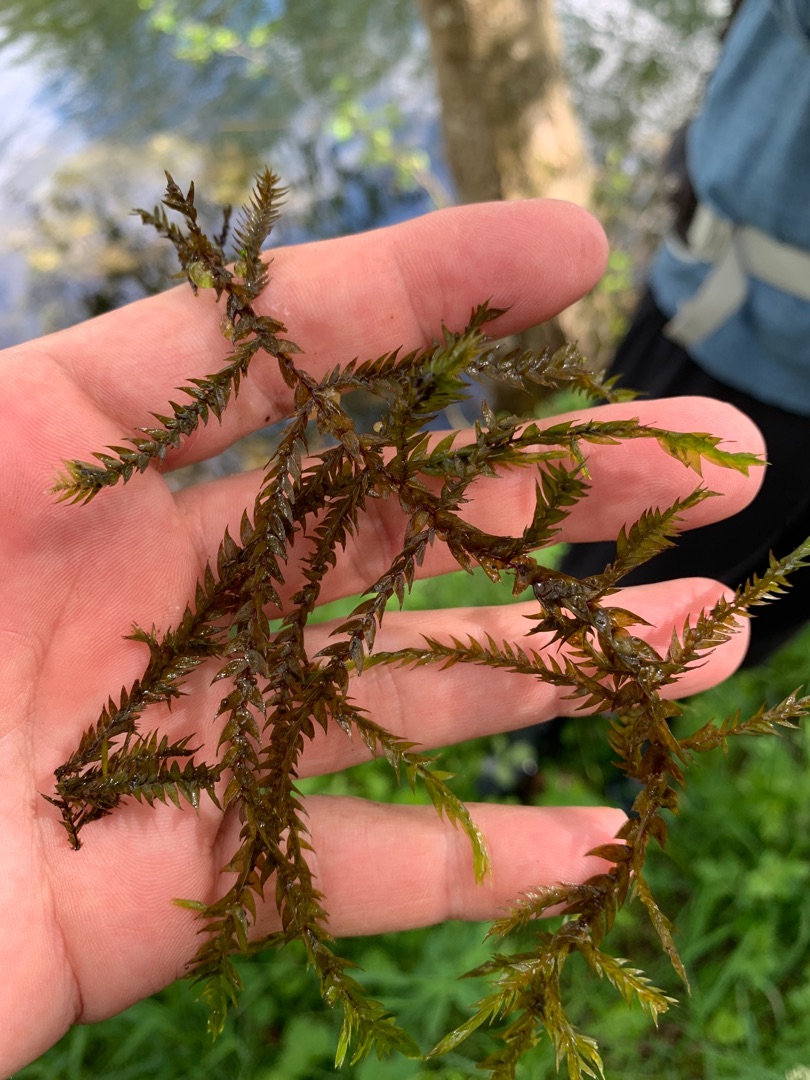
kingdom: Plantae
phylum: Bryophyta
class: Bryopsida
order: Hypnales
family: Fontinalaceae
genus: Fontinalis
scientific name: Fontinalis antipyretica
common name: Stor kildemos
